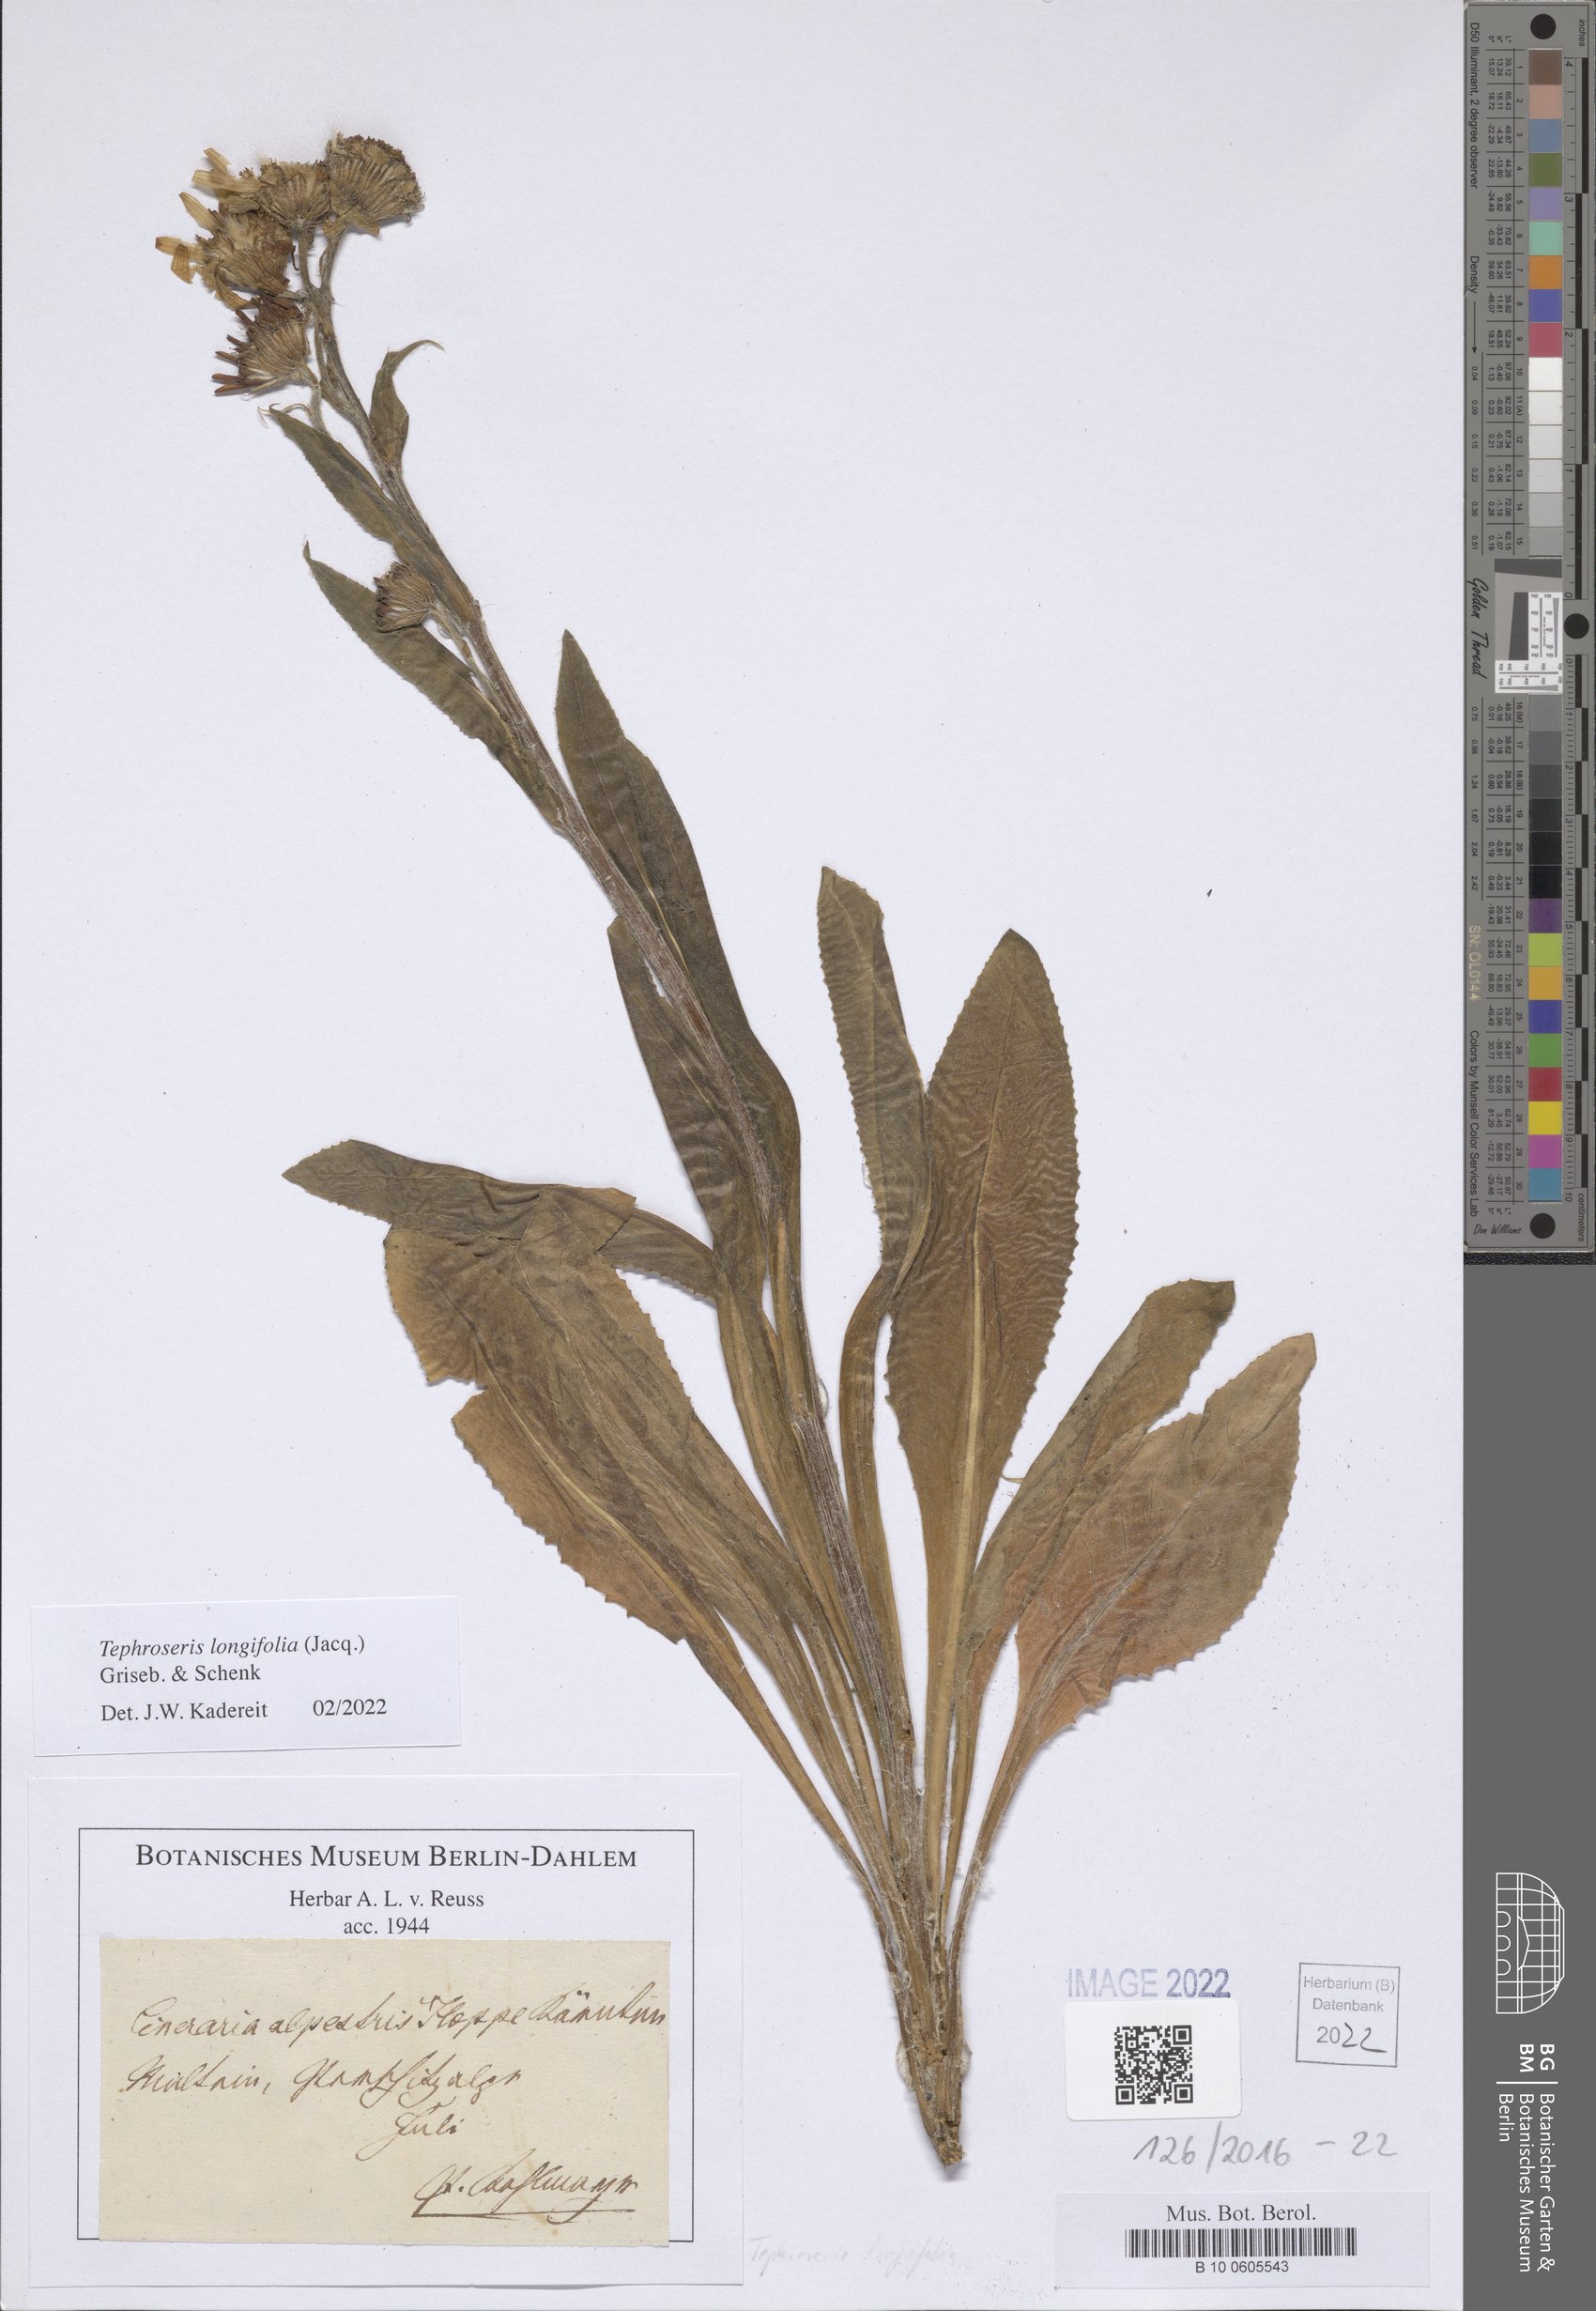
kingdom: Plantae
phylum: Tracheophyta
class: Magnoliopsida
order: Asterales
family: Asteraceae
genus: Tephroseris
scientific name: Tephroseris longifolia
